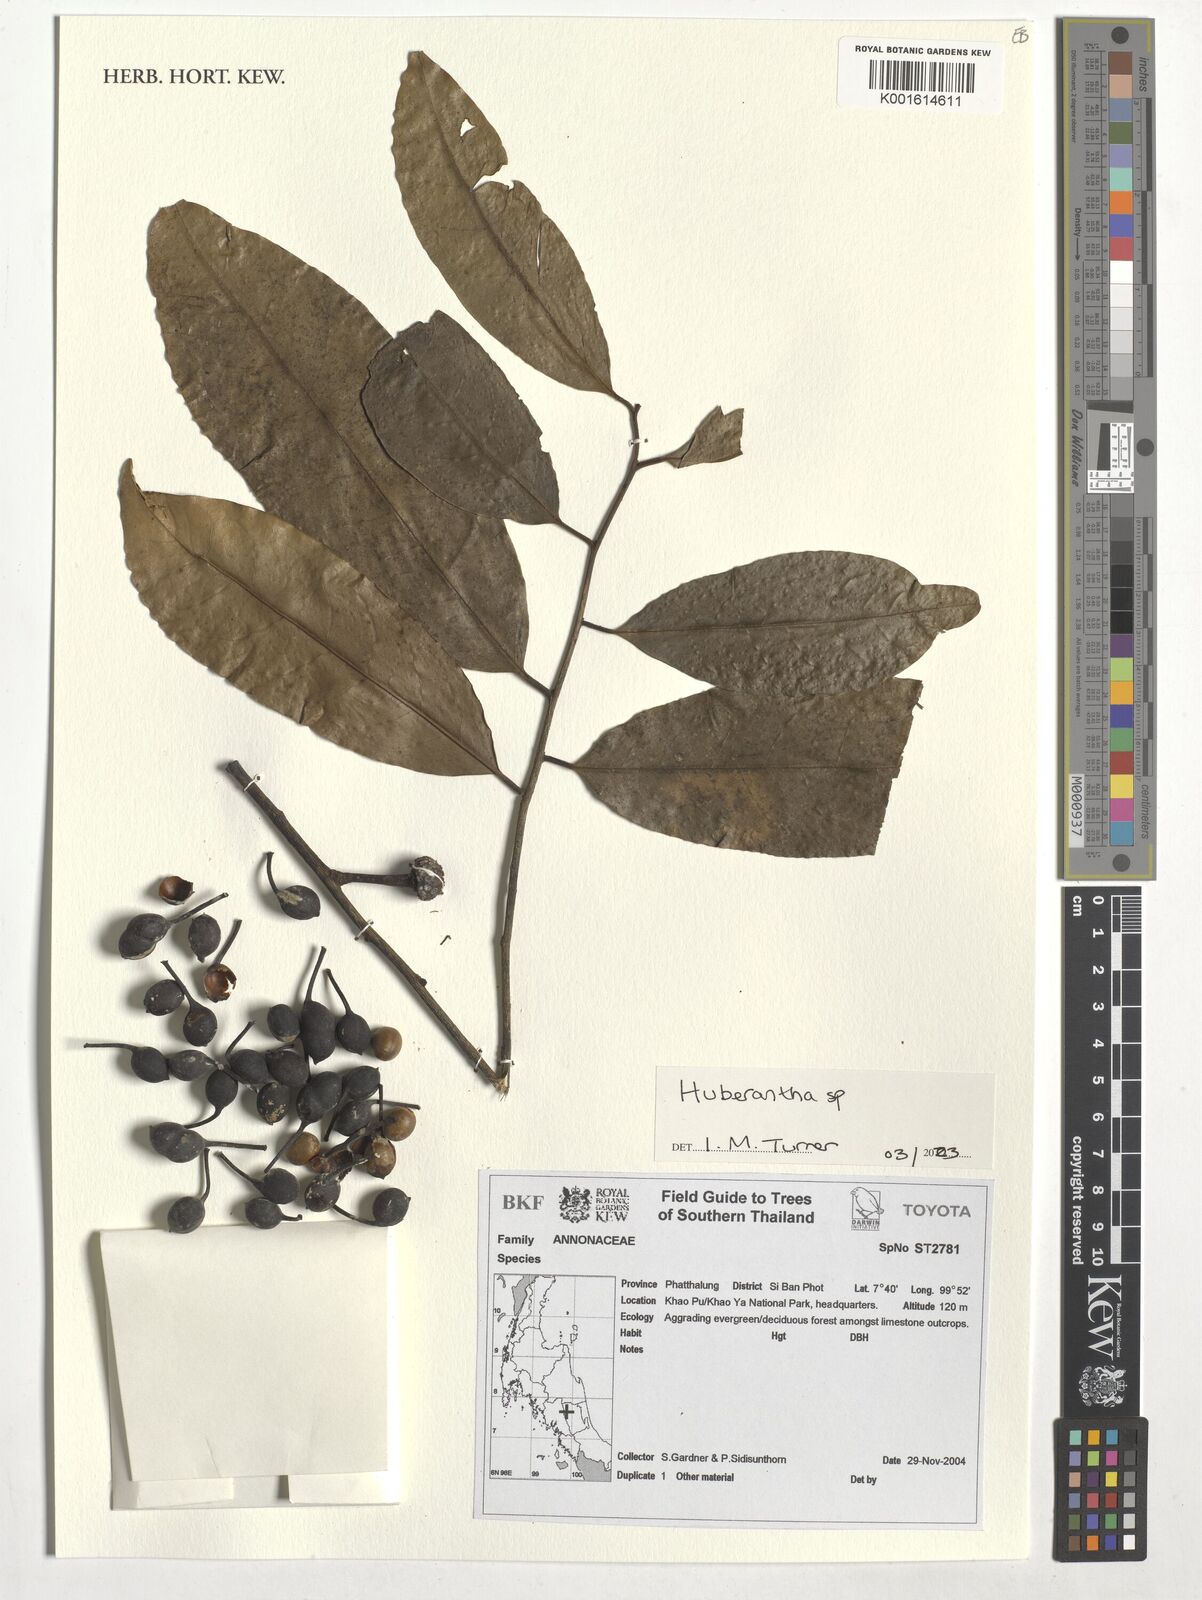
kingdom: Plantae
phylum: Tracheophyta
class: Magnoliopsida
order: Magnoliales
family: Annonaceae
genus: Huberantha
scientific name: Huberantha
